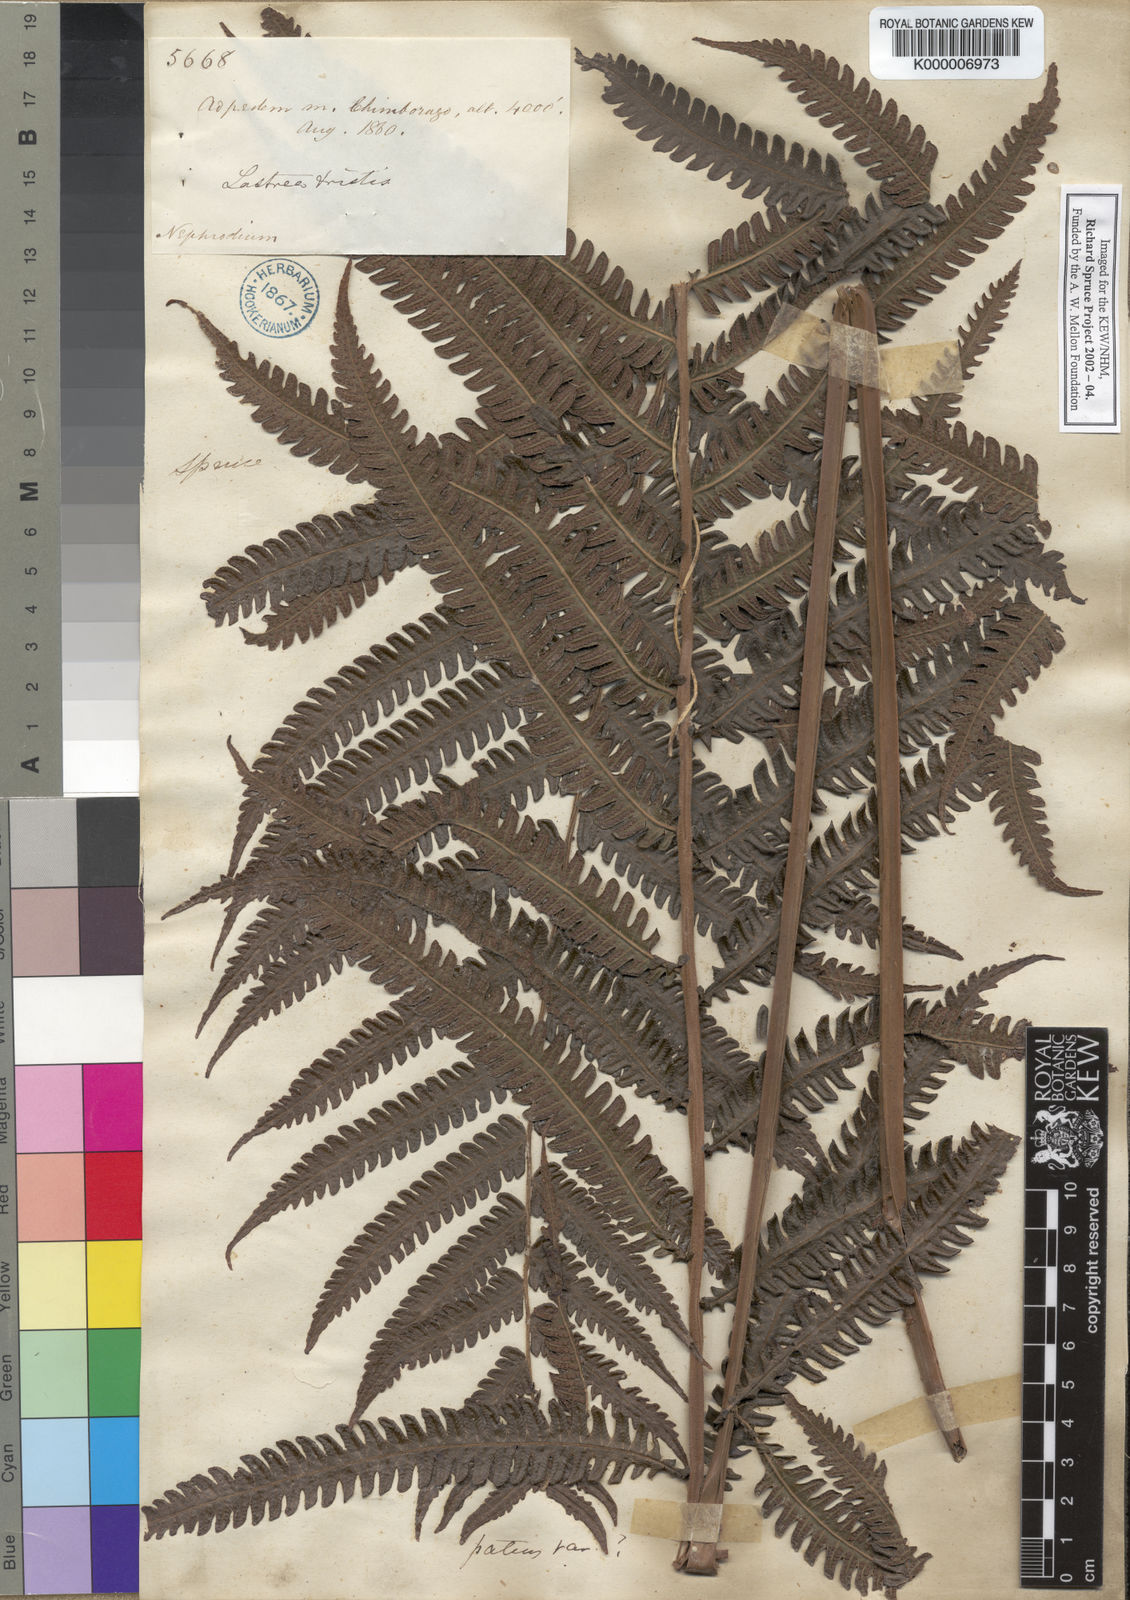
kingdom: Plantae
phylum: Tracheophyta
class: Polypodiopsida
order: Polypodiales
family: Thelypteridaceae
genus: Goniopteris
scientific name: Goniopteris tetragona
